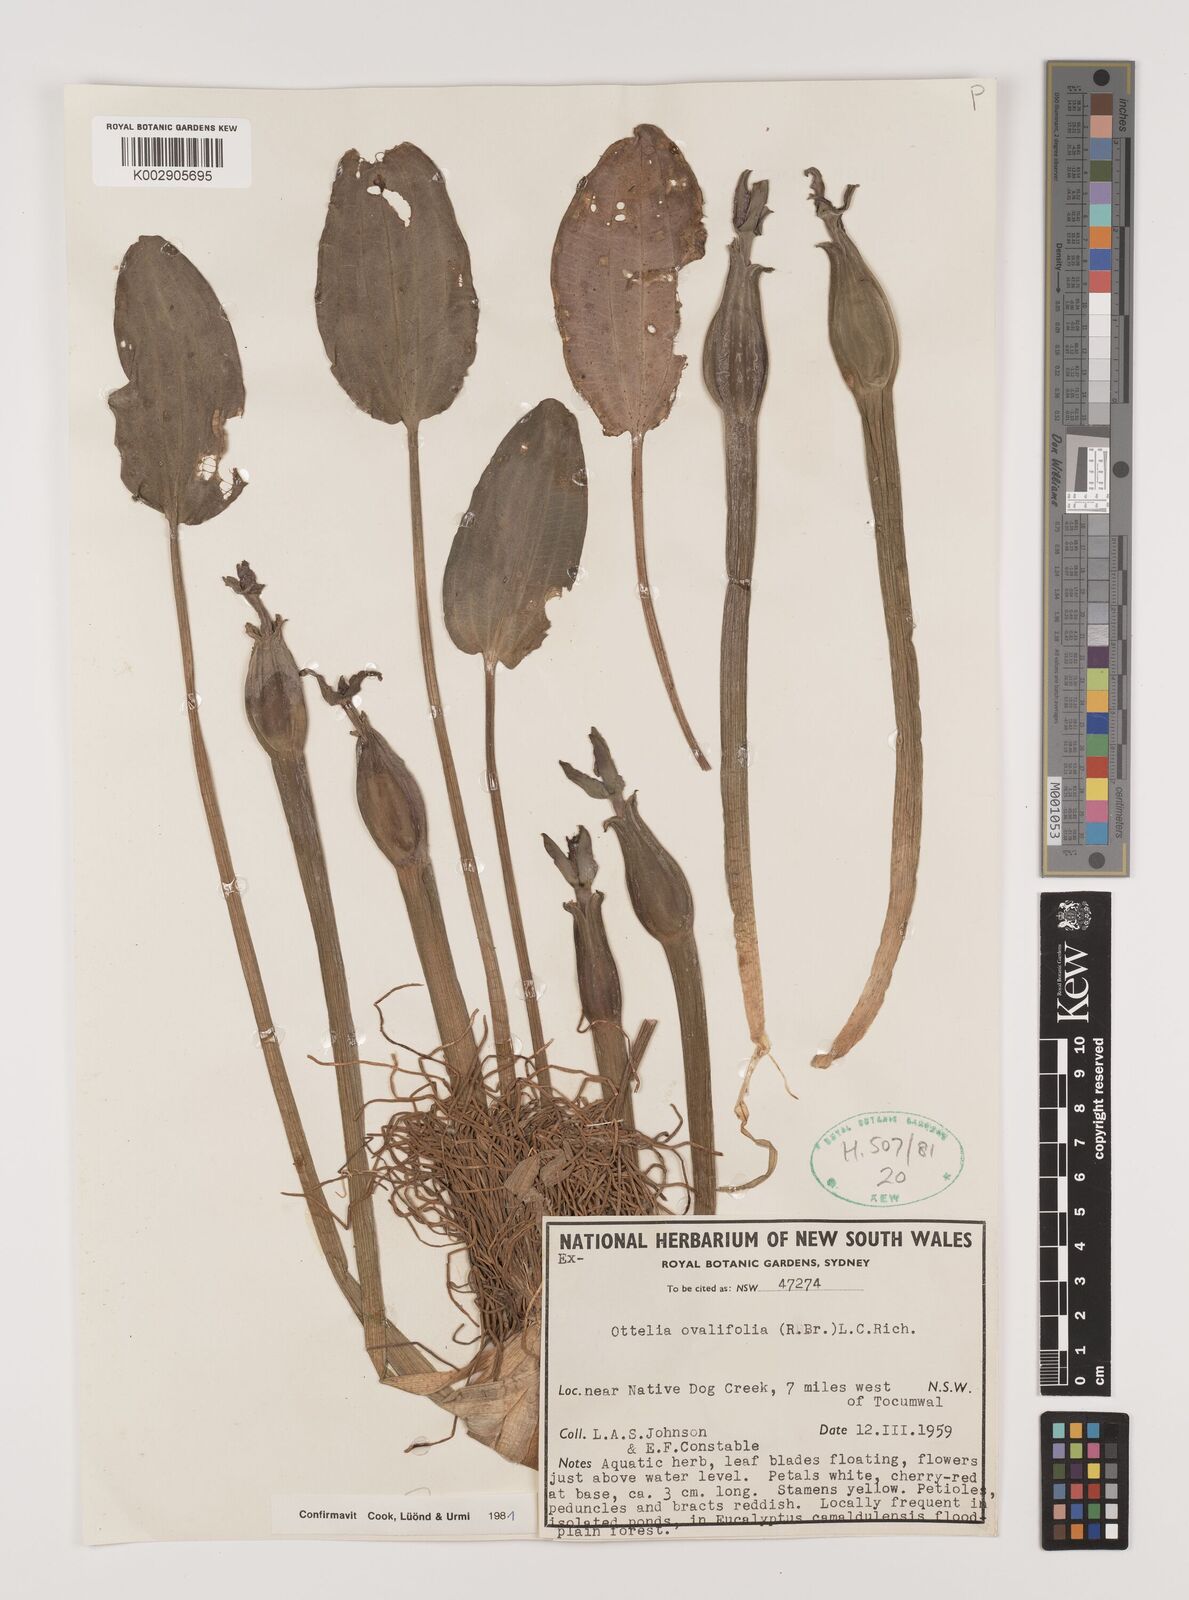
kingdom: Plantae
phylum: Tracheophyta
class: Liliopsida
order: Alismatales
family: Hydrocharitaceae
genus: Ottelia
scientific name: Ottelia ovalifolia
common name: Swamp-lily
